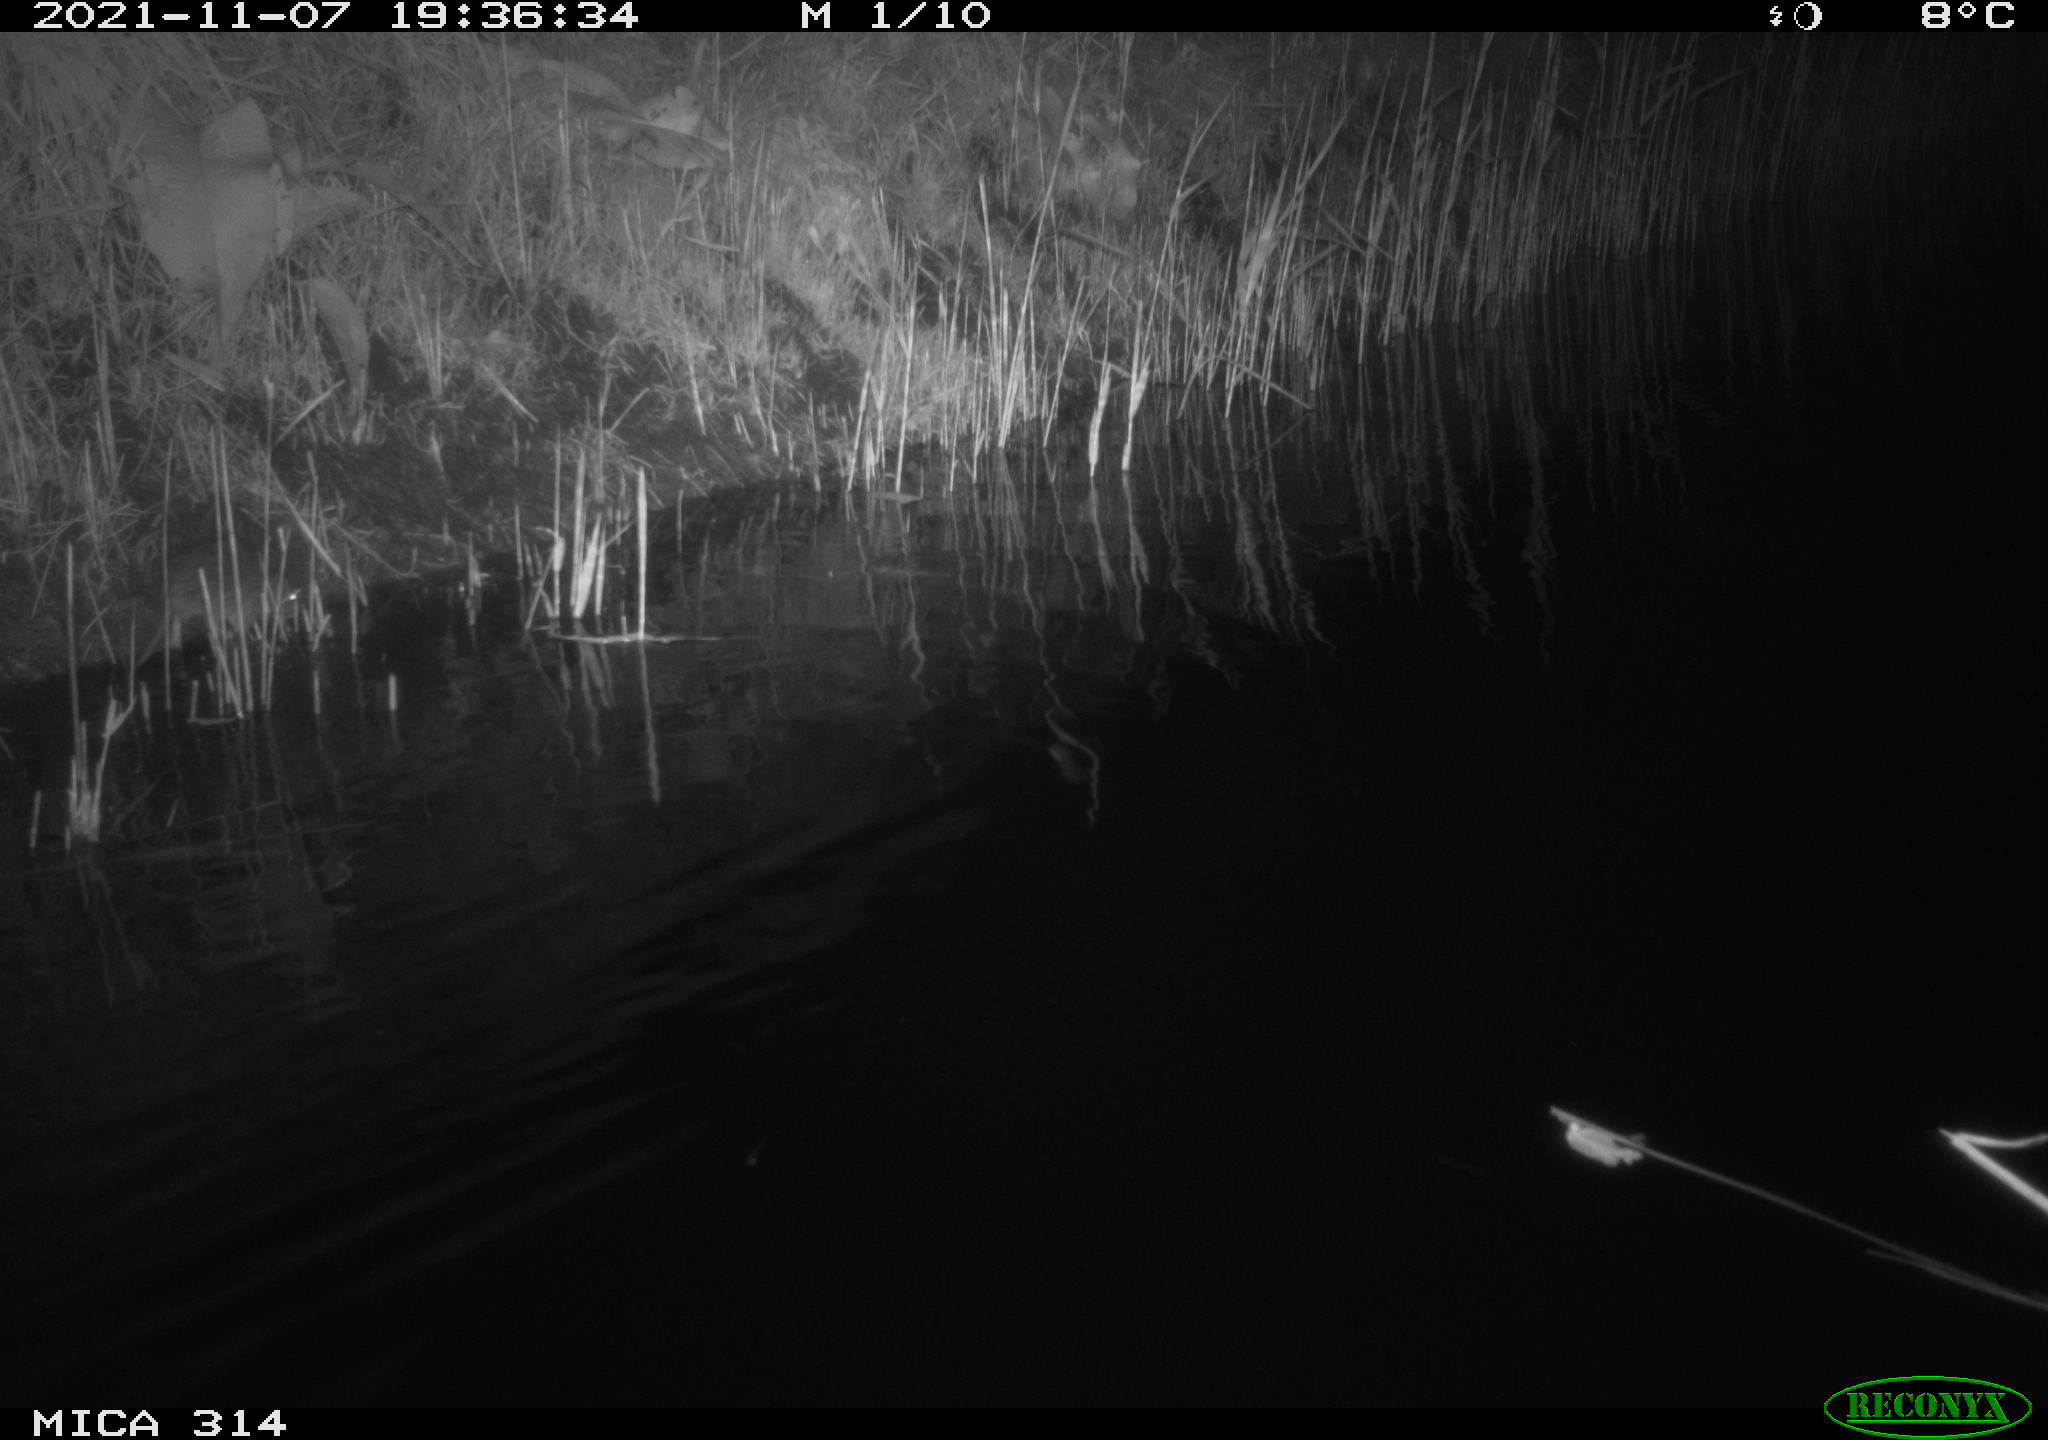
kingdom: Animalia
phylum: Chordata
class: Mammalia
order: Rodentia
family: Muridae
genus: Rattus
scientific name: Rattus norvegicus
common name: Brown rat
